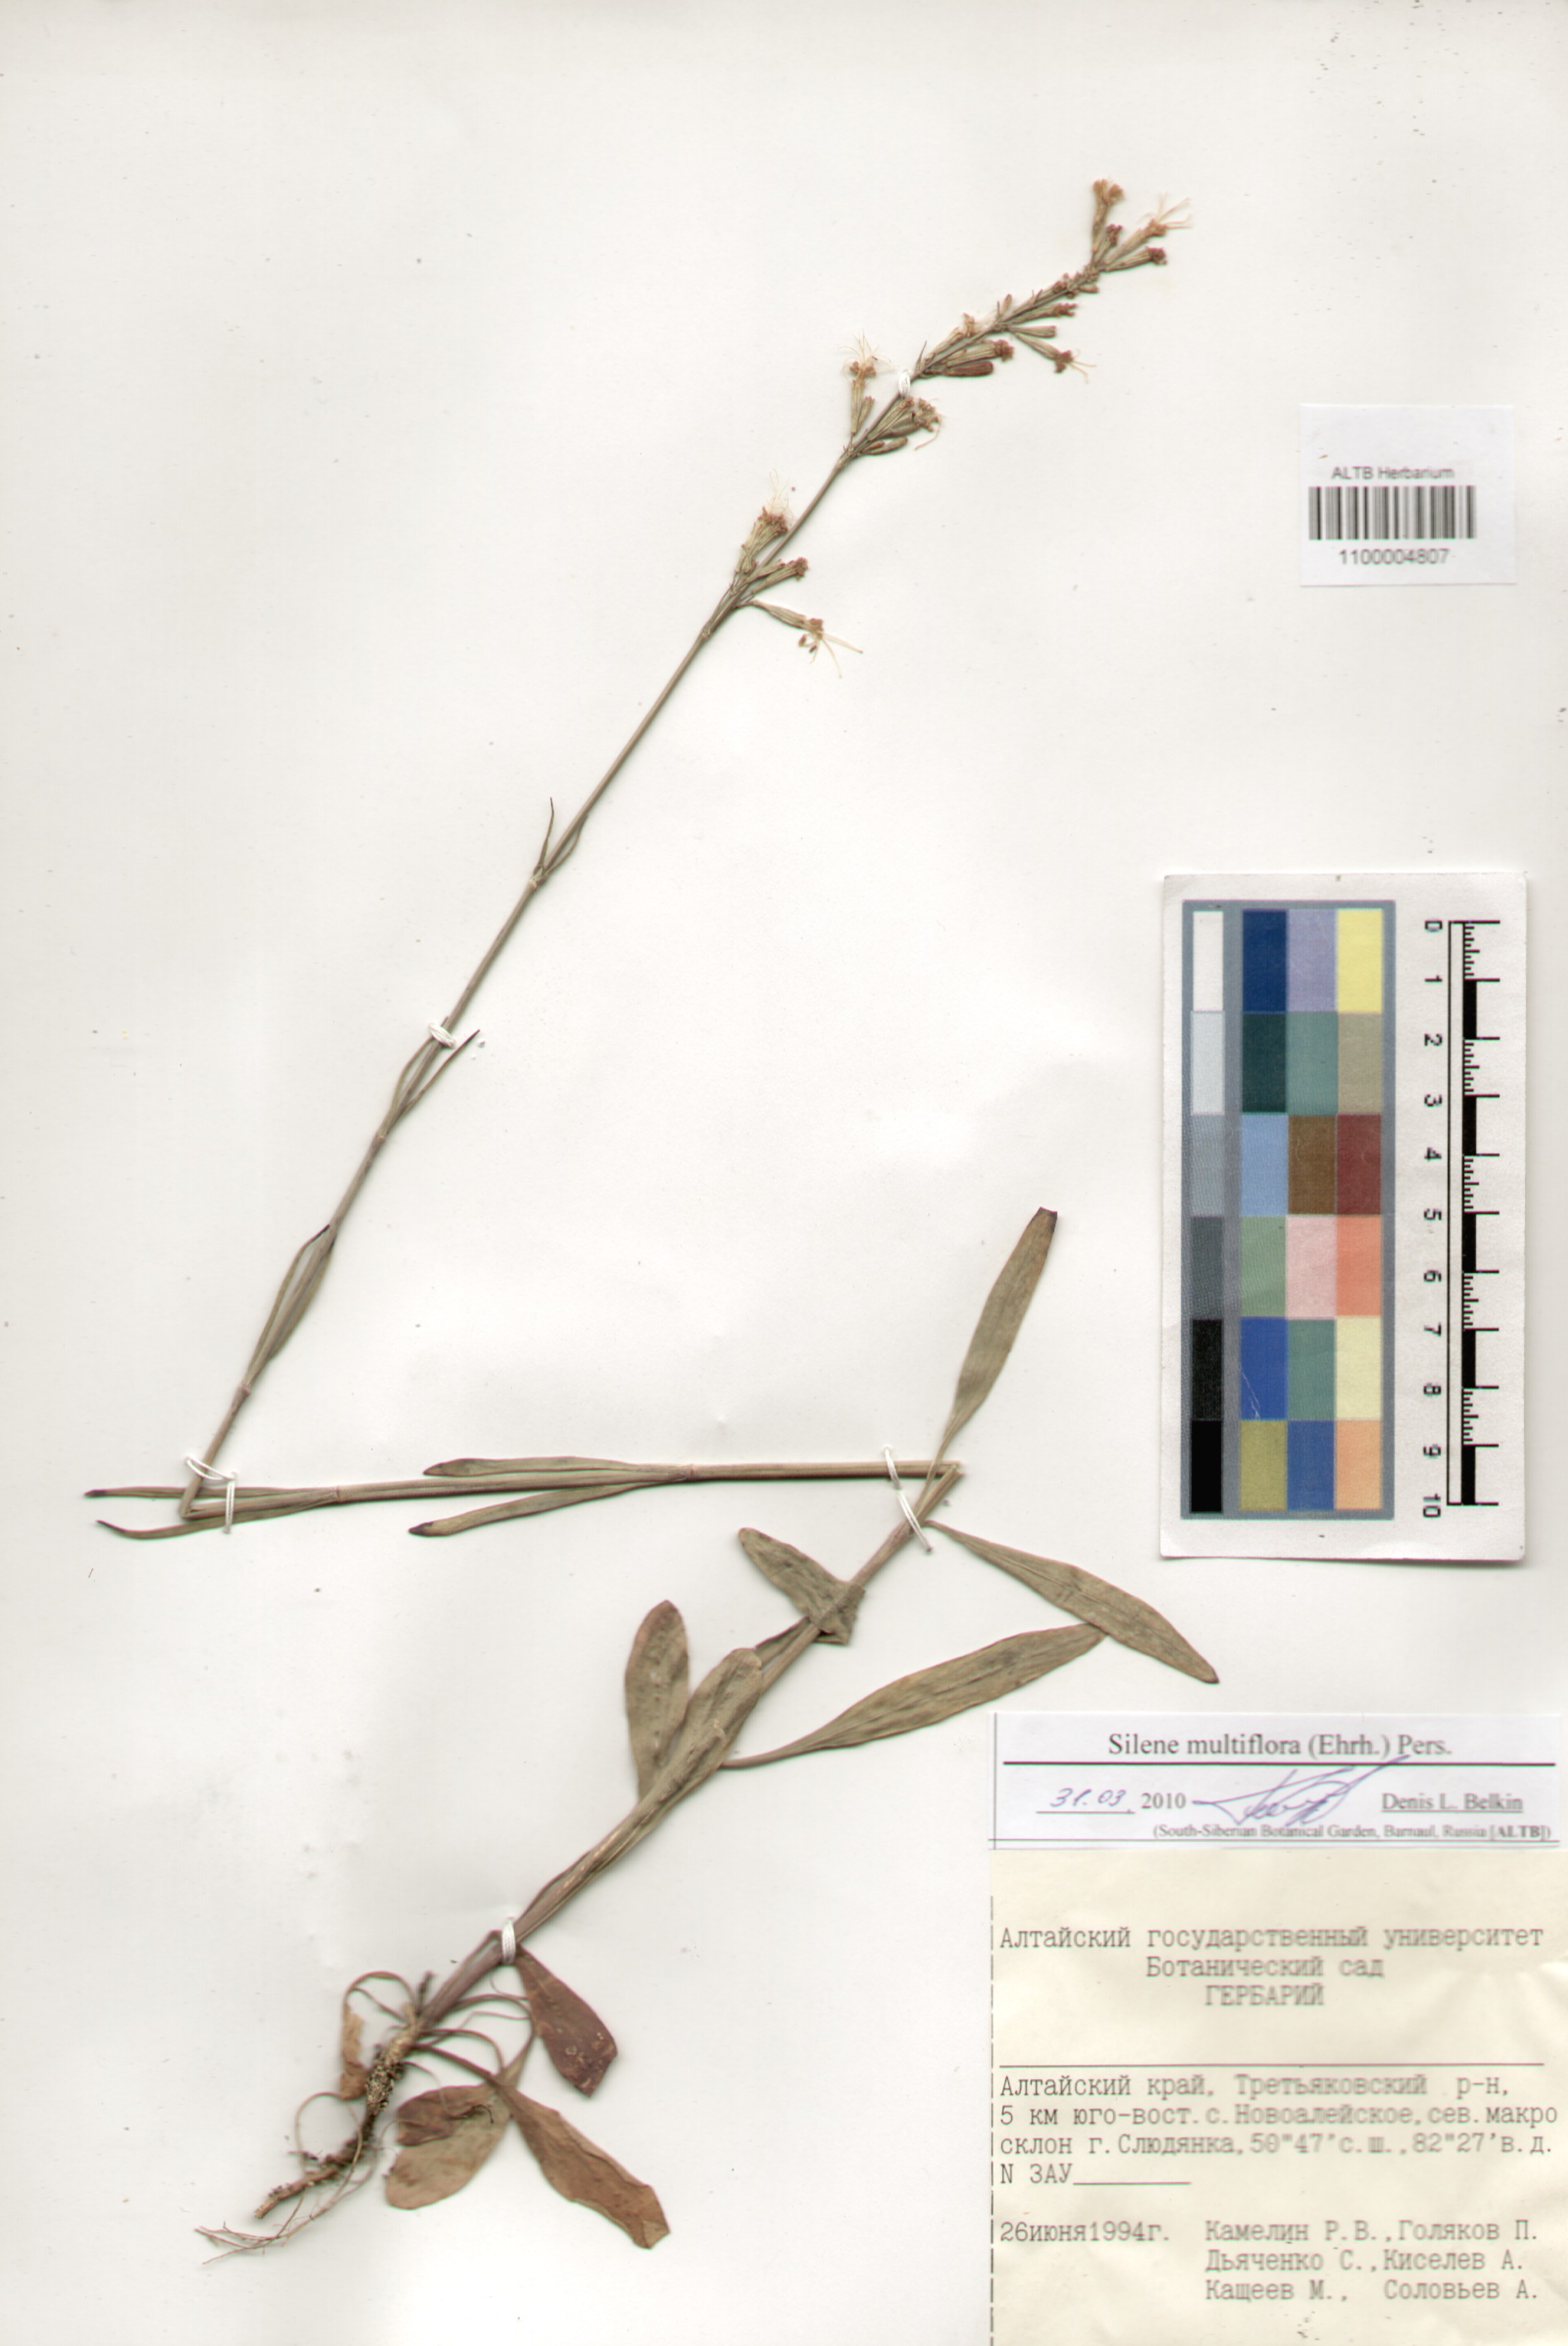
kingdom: Plantae
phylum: Tracheophyta
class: Magnoliopsida
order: Caryophyllales
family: Caryophyllaceae
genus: Silene
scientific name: Silene multiflora
